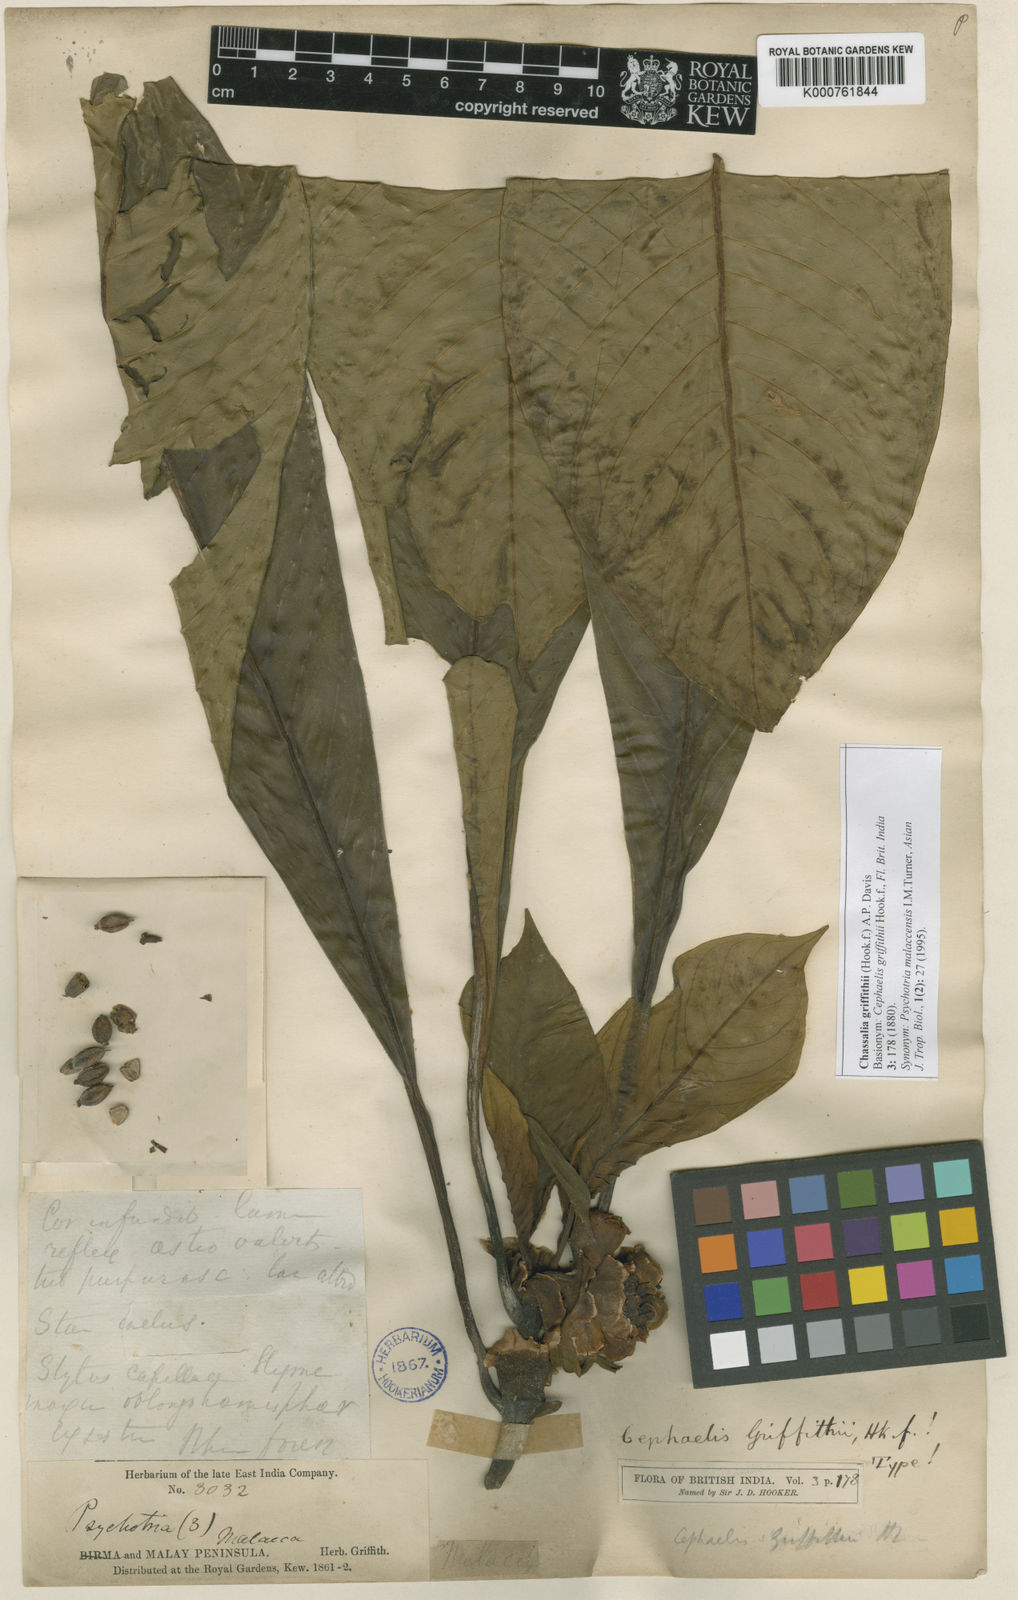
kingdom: Plantae
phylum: Tracheophyta
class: Magnoliopsida
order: Gentianales
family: Rubiaceae
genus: Chassalia
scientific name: Chassalia griffithii
